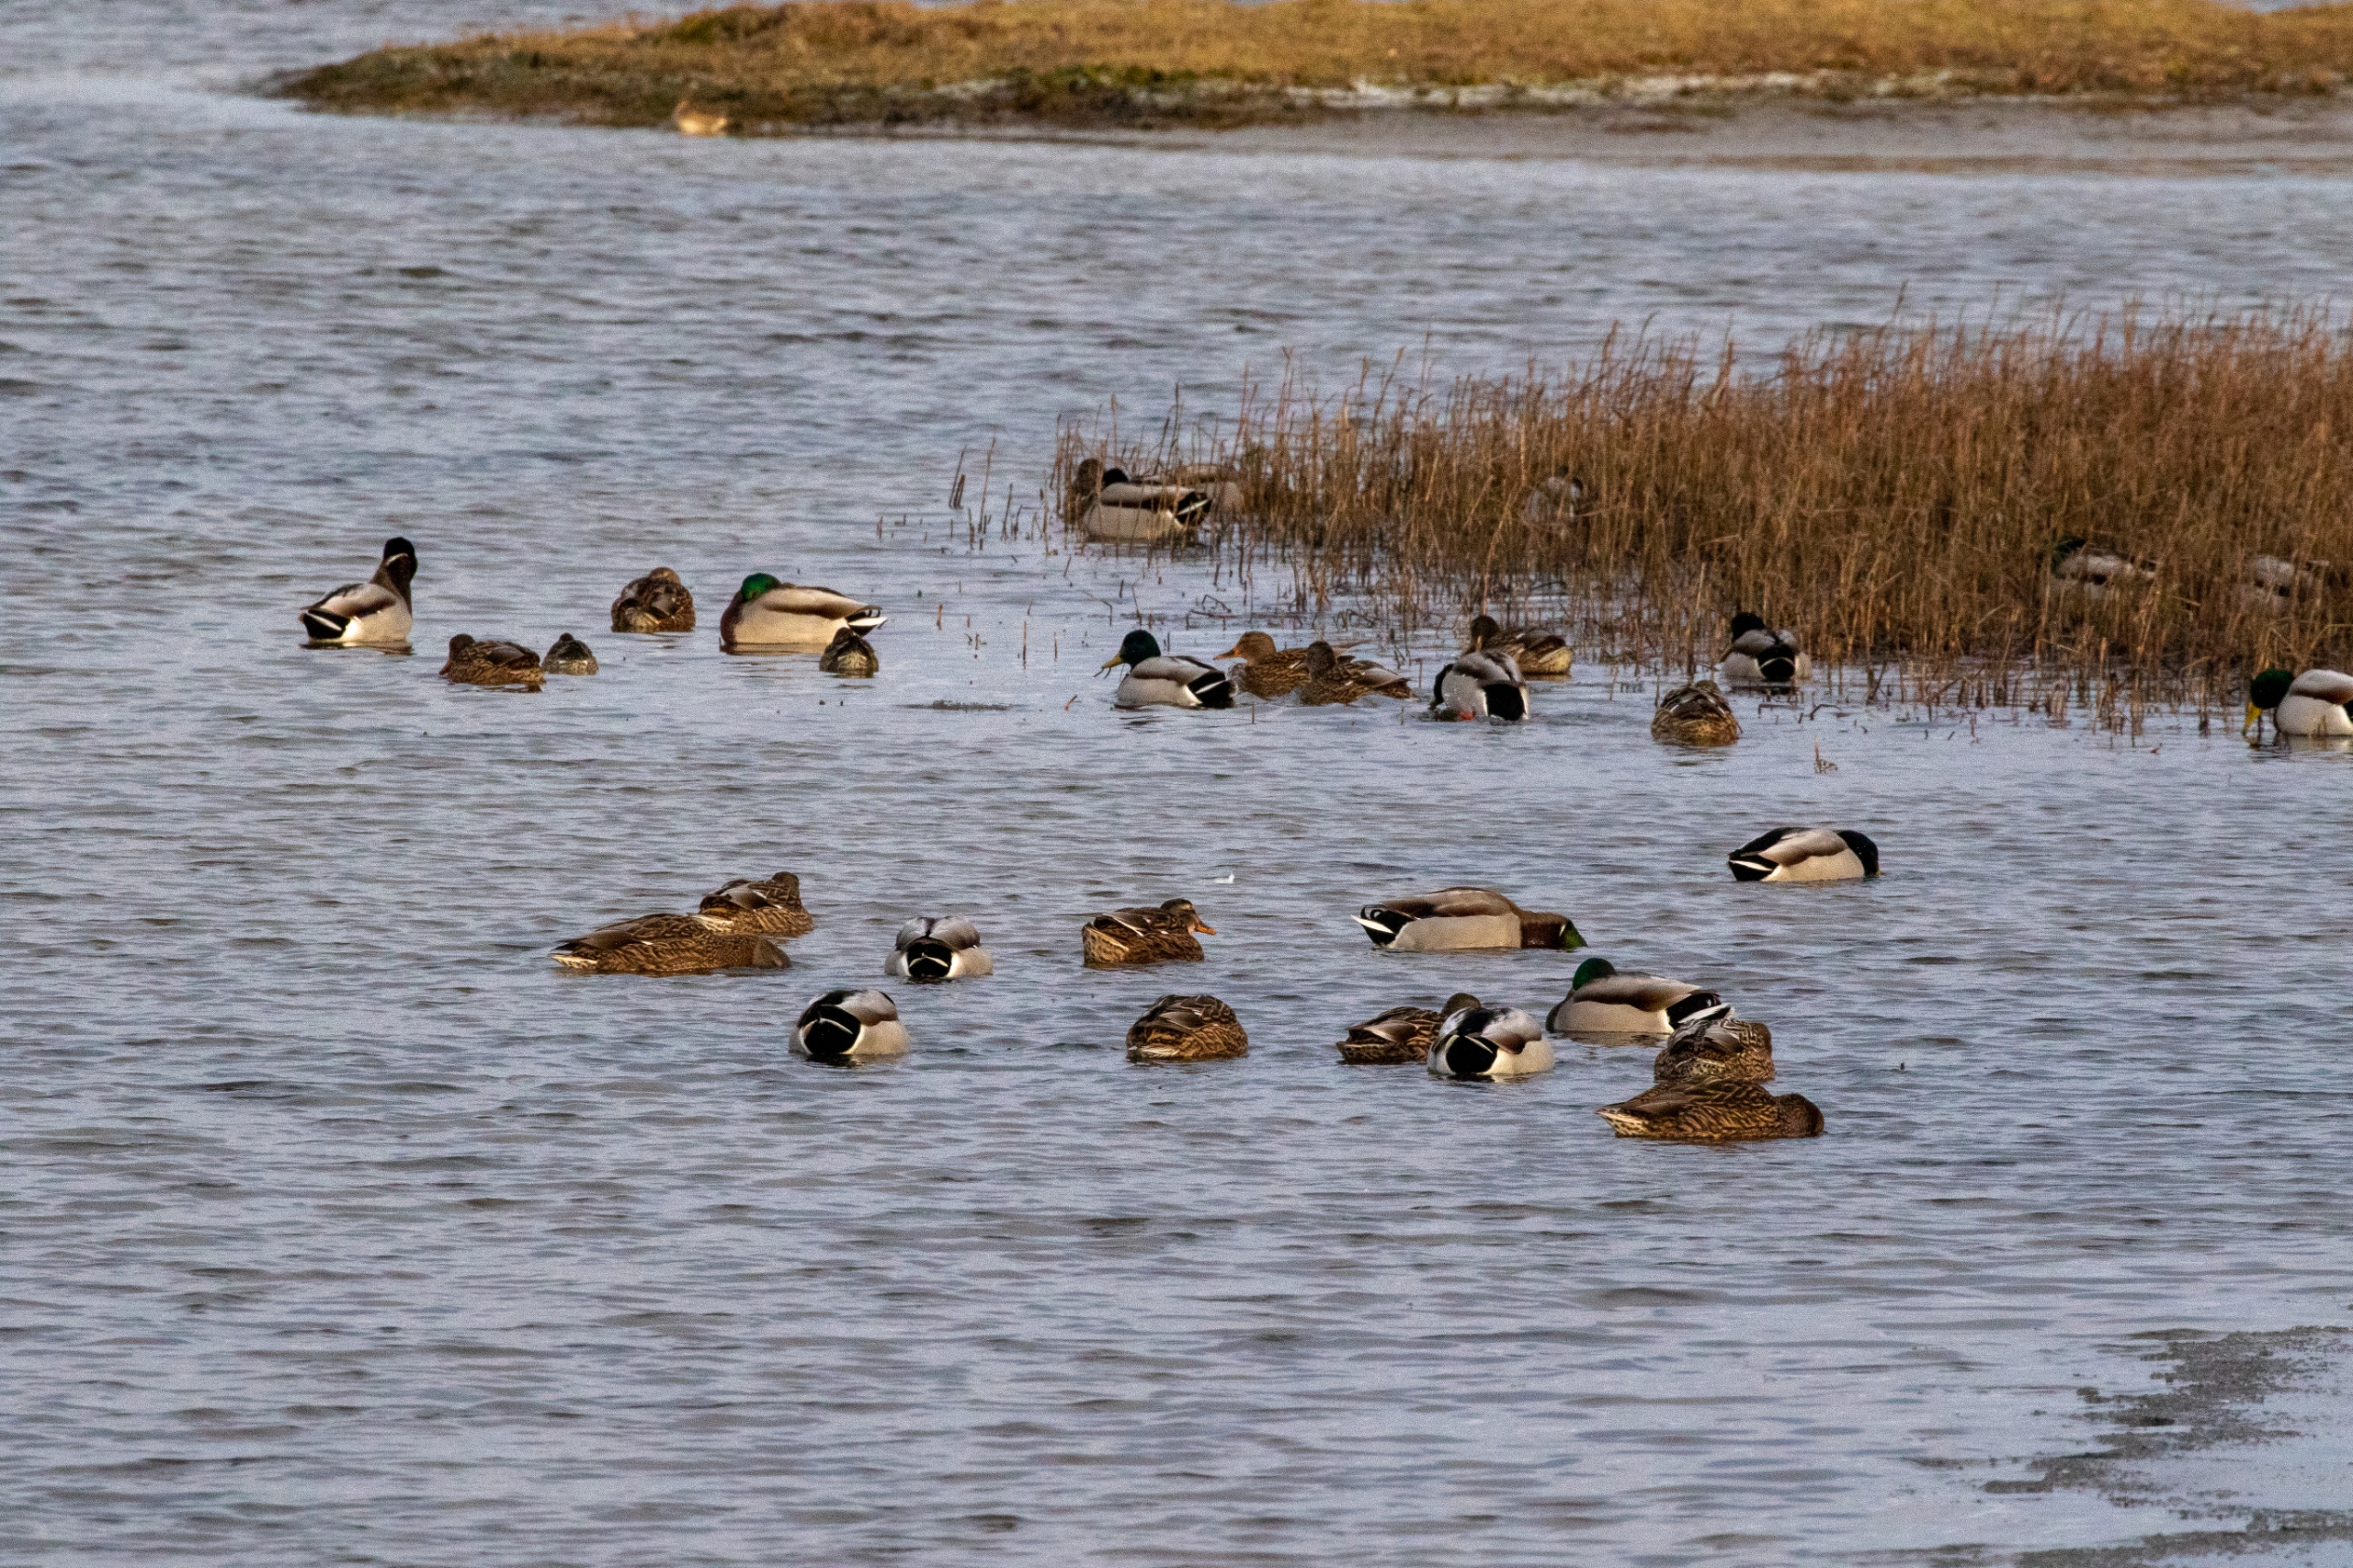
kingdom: Animalia
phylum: Chordata
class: Aves
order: Anseriformes
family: Anatidae
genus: Anas
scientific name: Anas platyrhynchos
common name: Gråand
